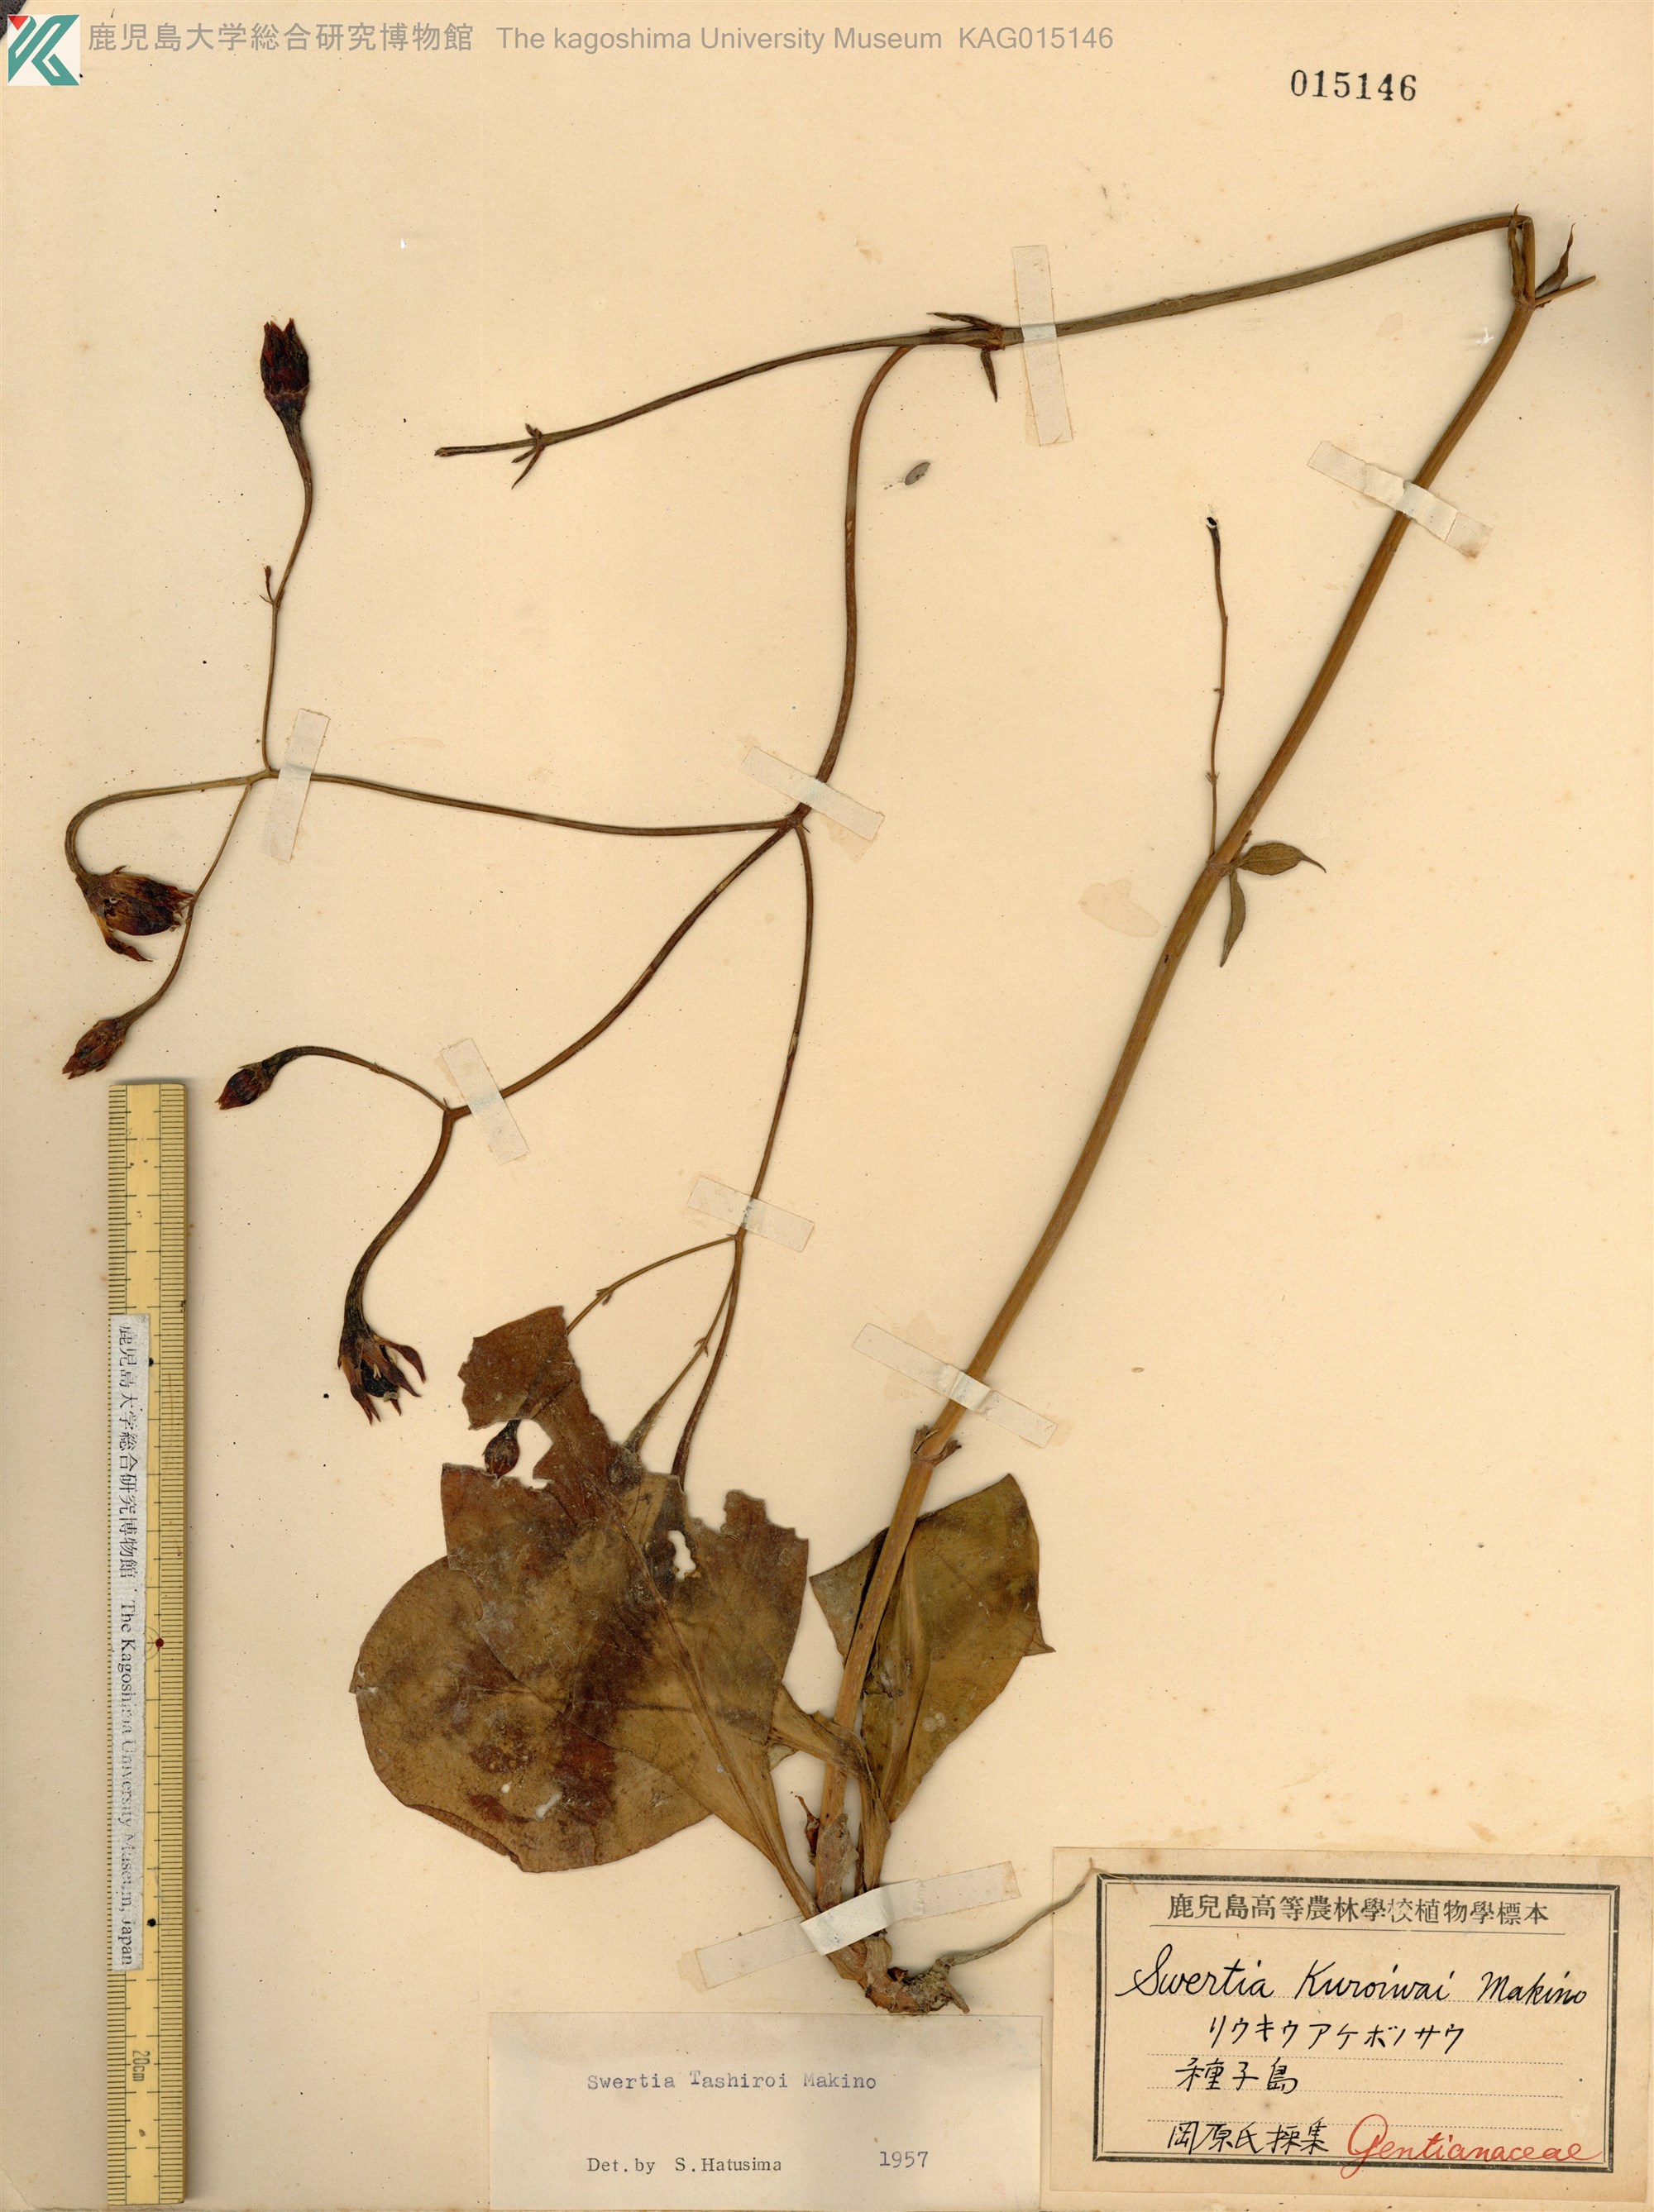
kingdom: Plantae
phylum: Tracheophyta
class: Magnoliopsida
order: Gentianales
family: Gentianaceae
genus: Swertia
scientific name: Swertia tashiroi
